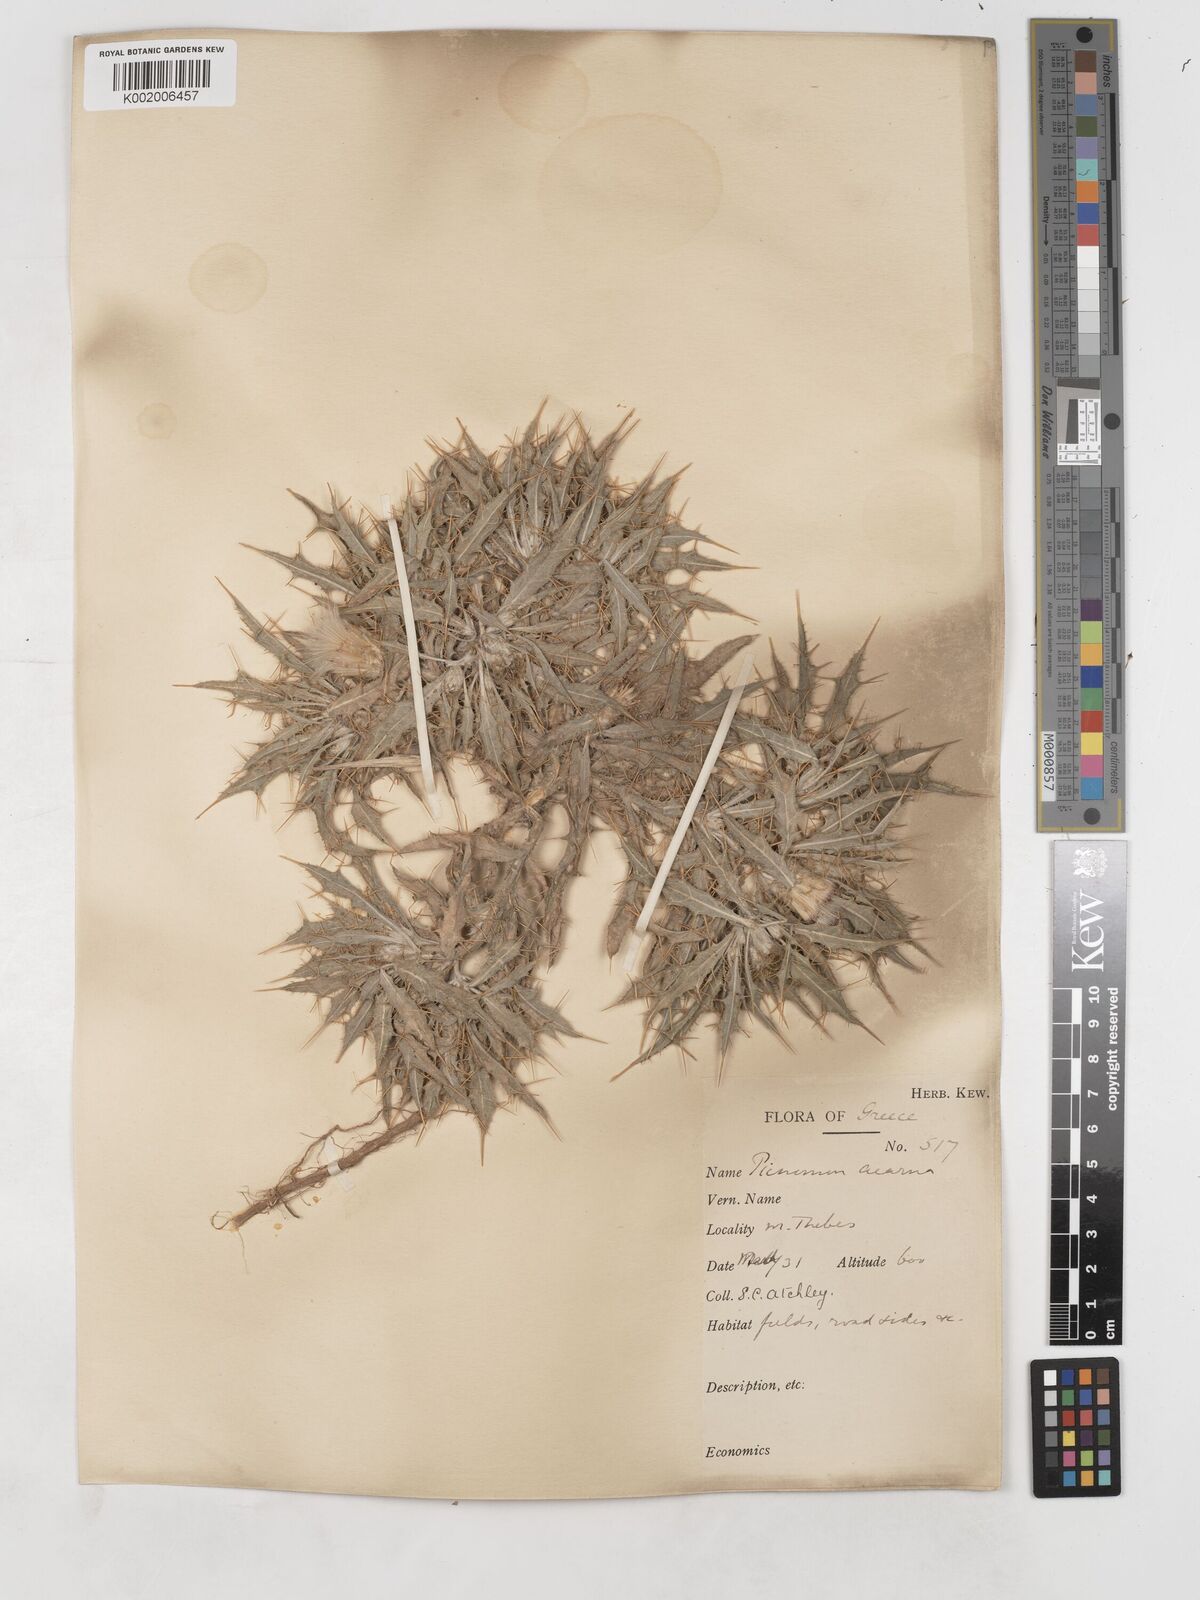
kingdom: Plantae
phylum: Tracheophyta
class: Magnoliopsida
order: Asterales
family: Asteraceae
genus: Picnomon
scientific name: Picnomon acarna
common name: Soldier thistle
